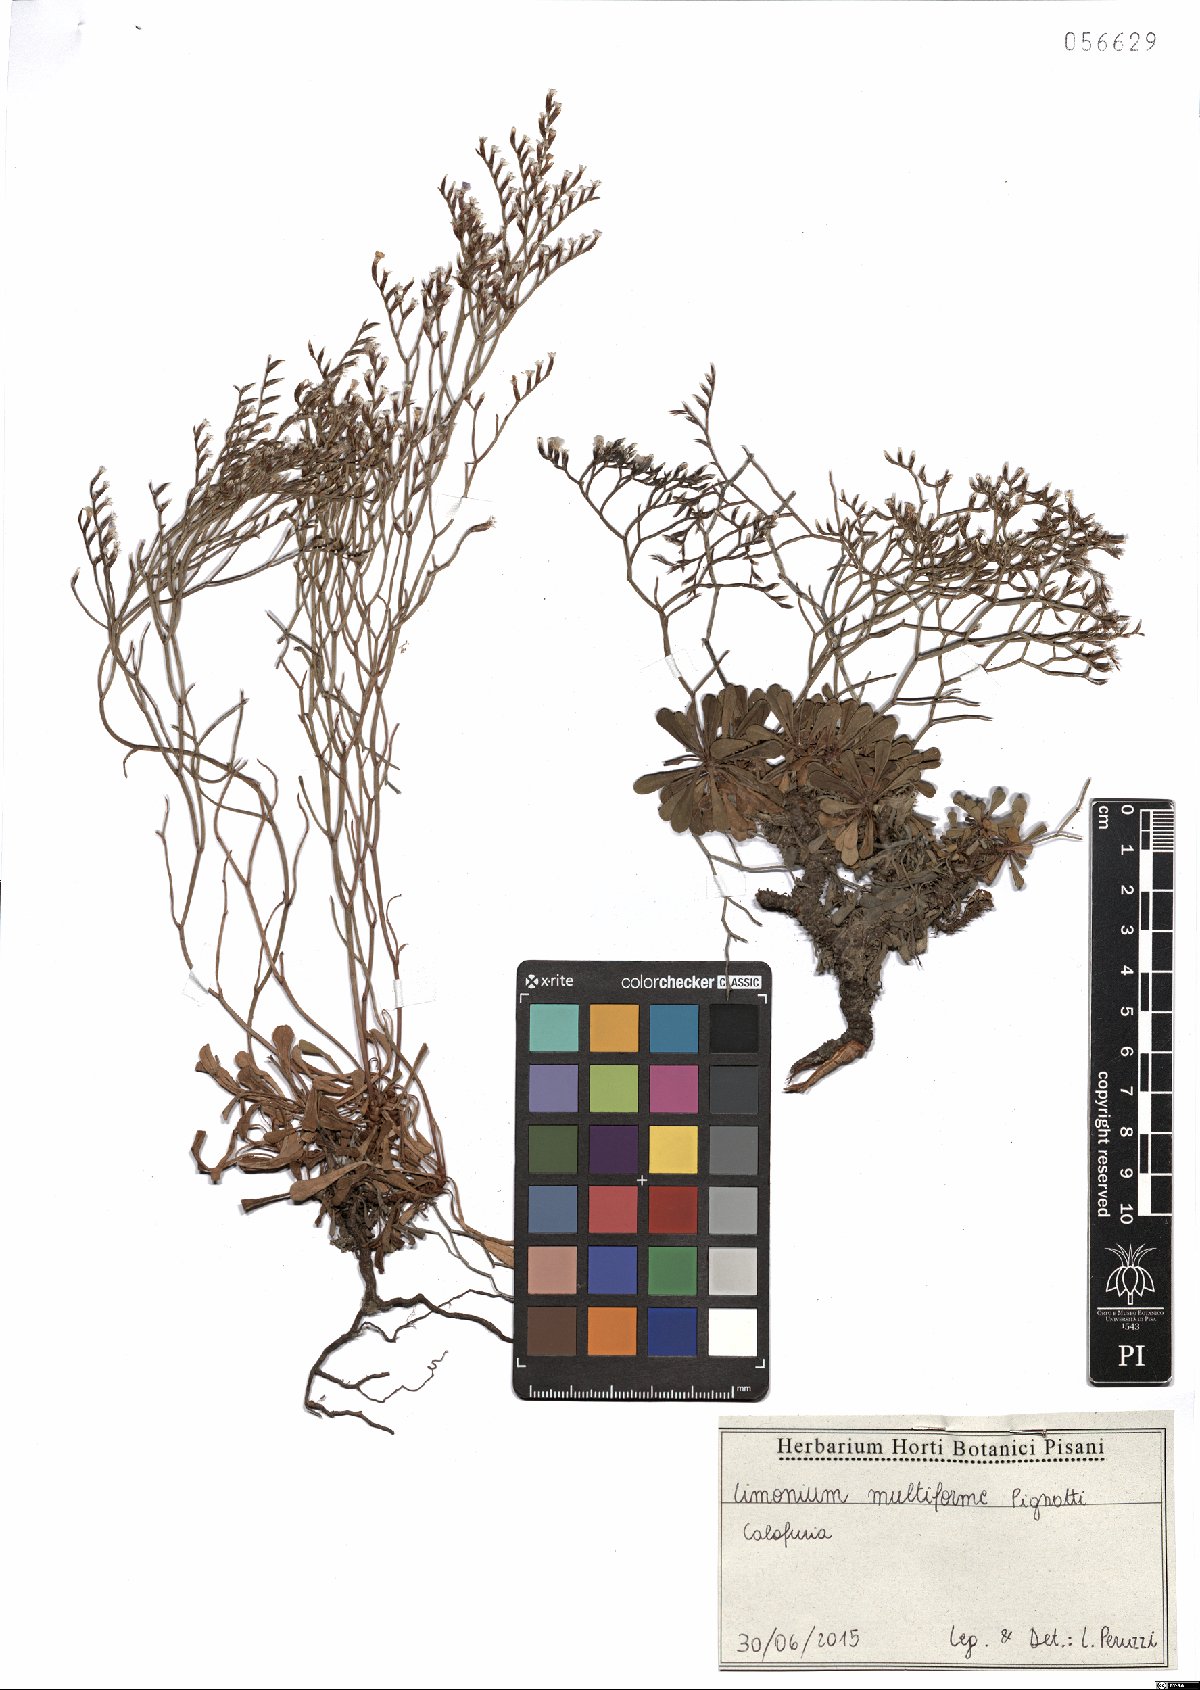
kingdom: Plantae
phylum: Tracheophyta
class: Magnoliopsida
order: Caryophyllales
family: Plumbaginaceae
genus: Limonium
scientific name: Limonium multiforme
